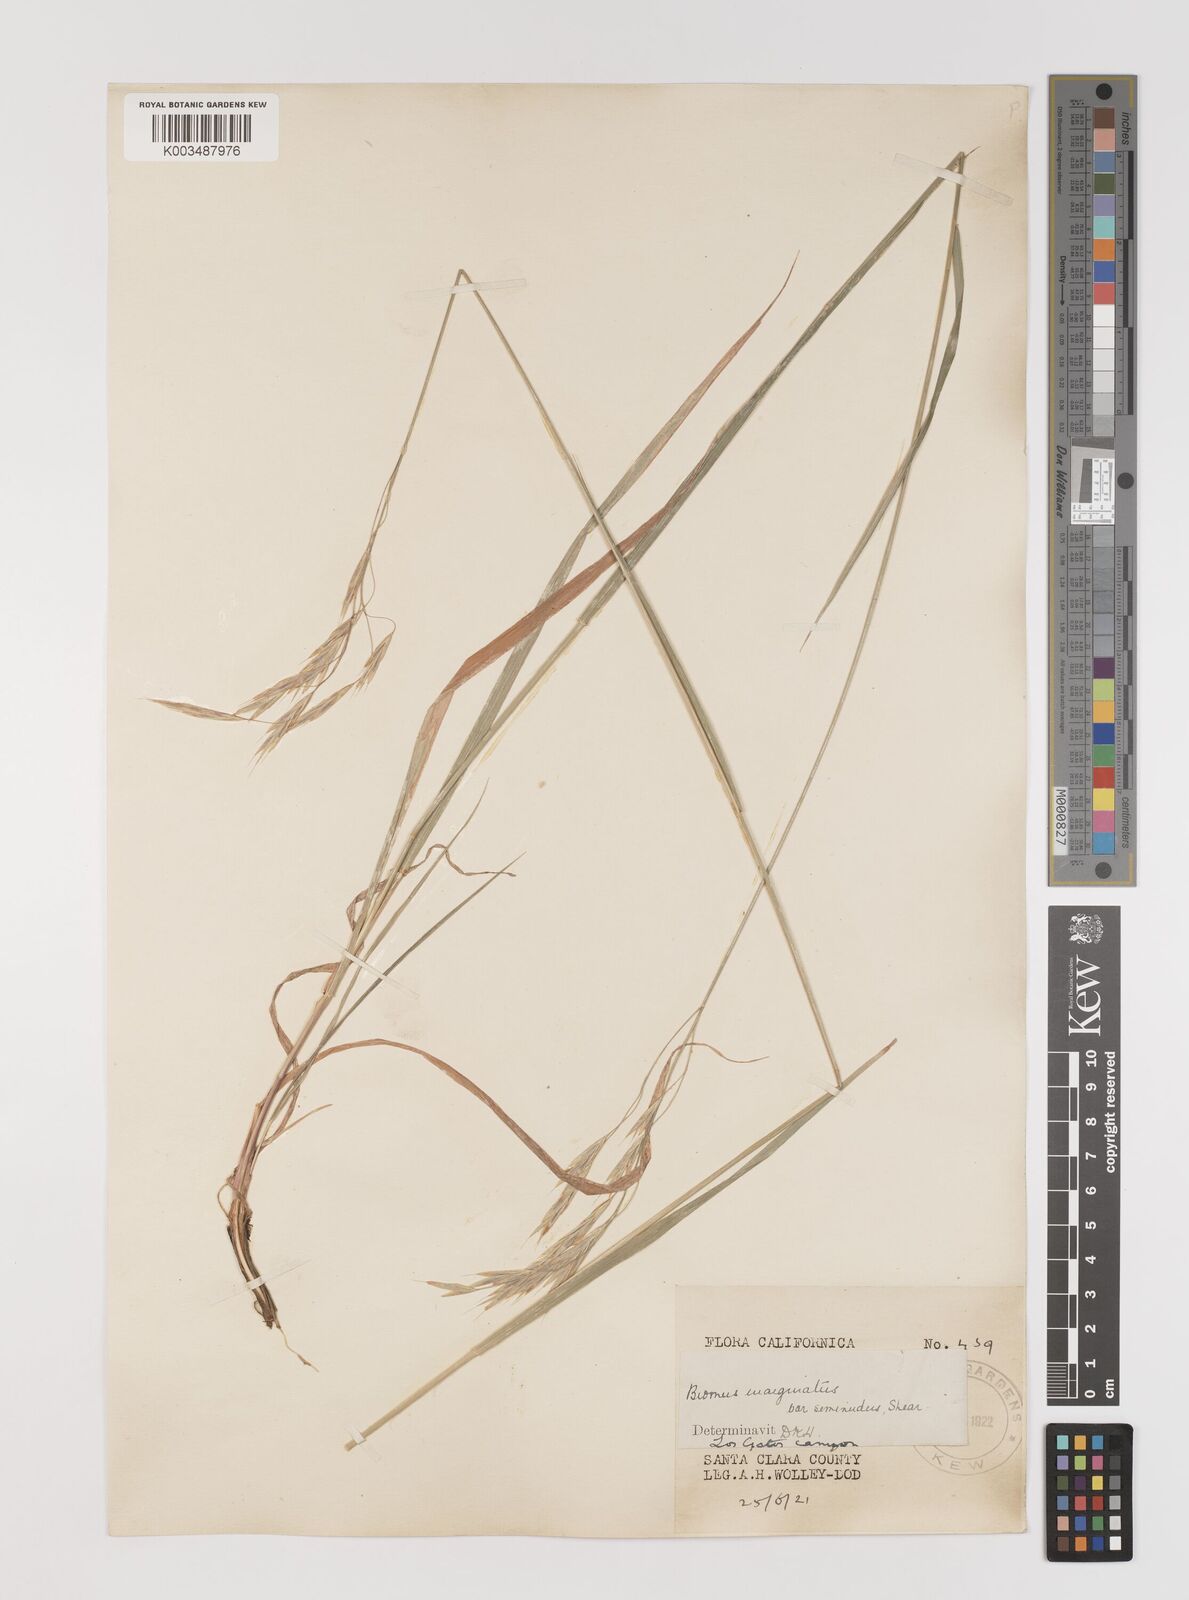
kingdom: Plantae
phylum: Tracheophyta
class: Liliopsida
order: Poales
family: Poaceae
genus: Bromus
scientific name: Bromus marginatus
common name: Western brome
